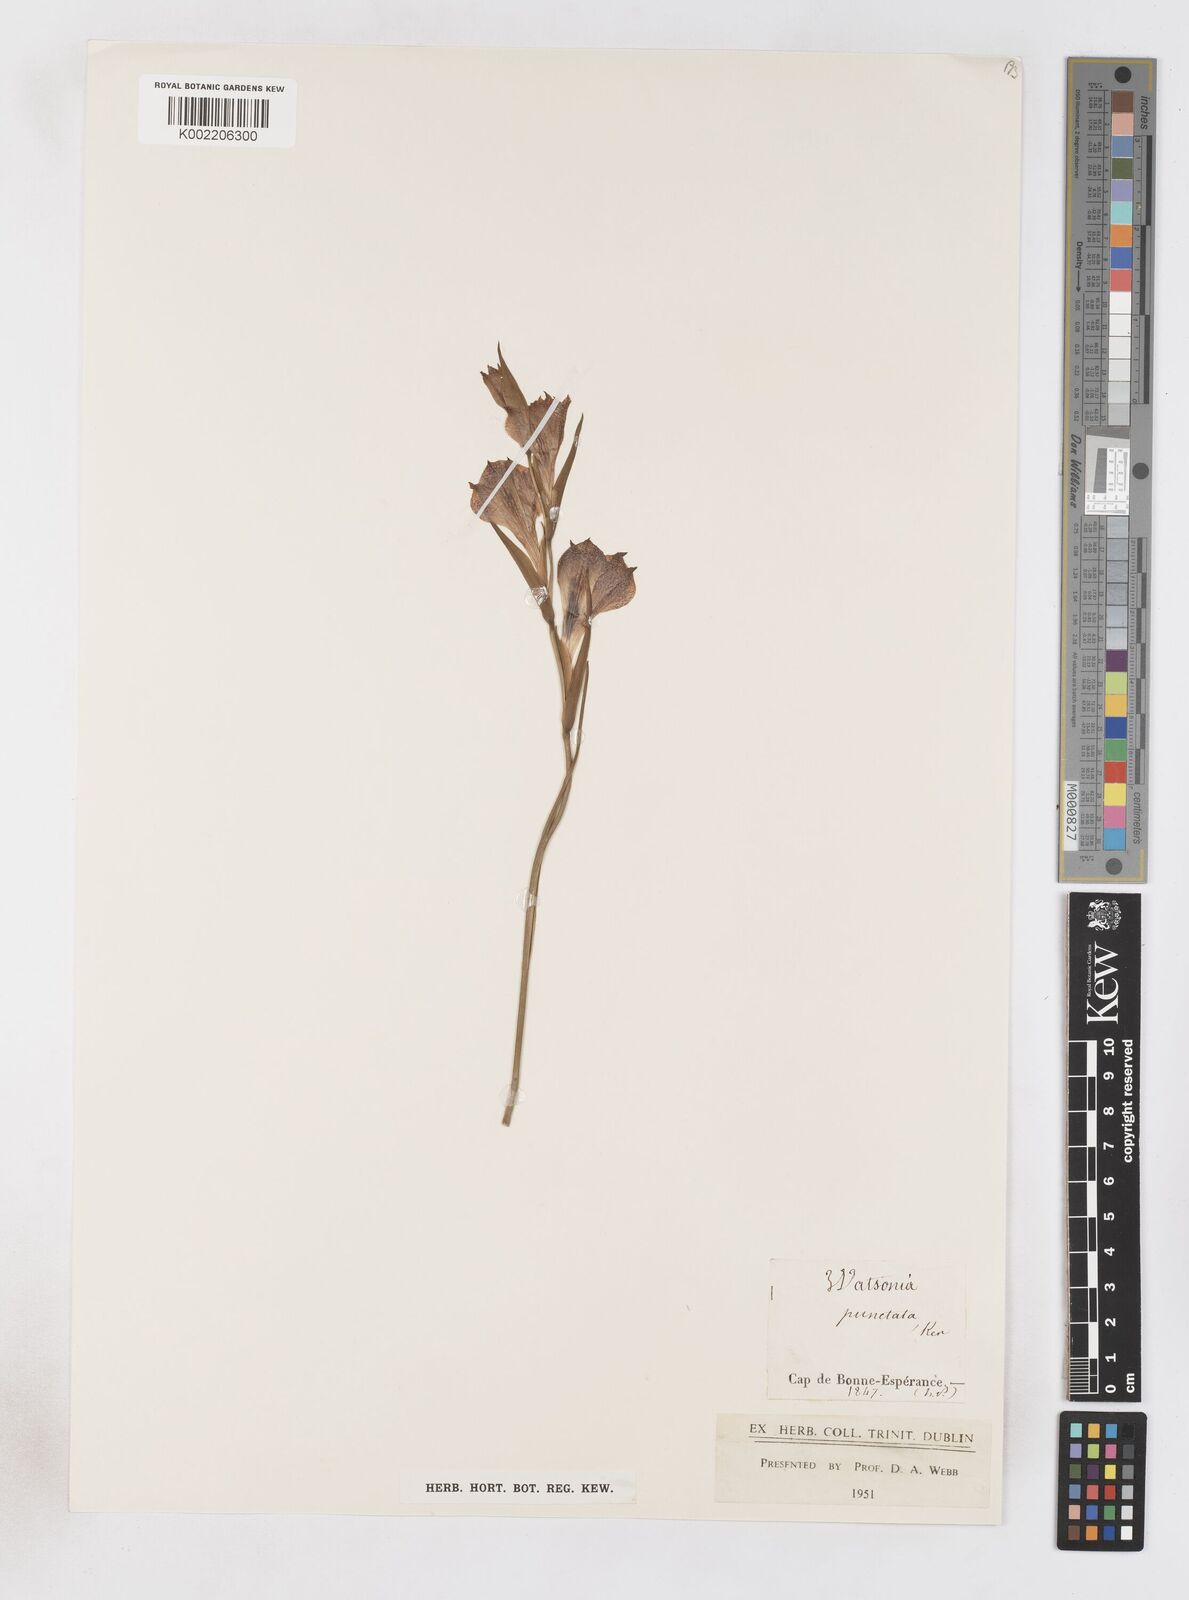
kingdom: Plantae
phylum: Tracheophyta
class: Liliopsida
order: Asparagales
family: Iridaceae
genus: Gladiolus
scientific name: Gladiolus maculatus
